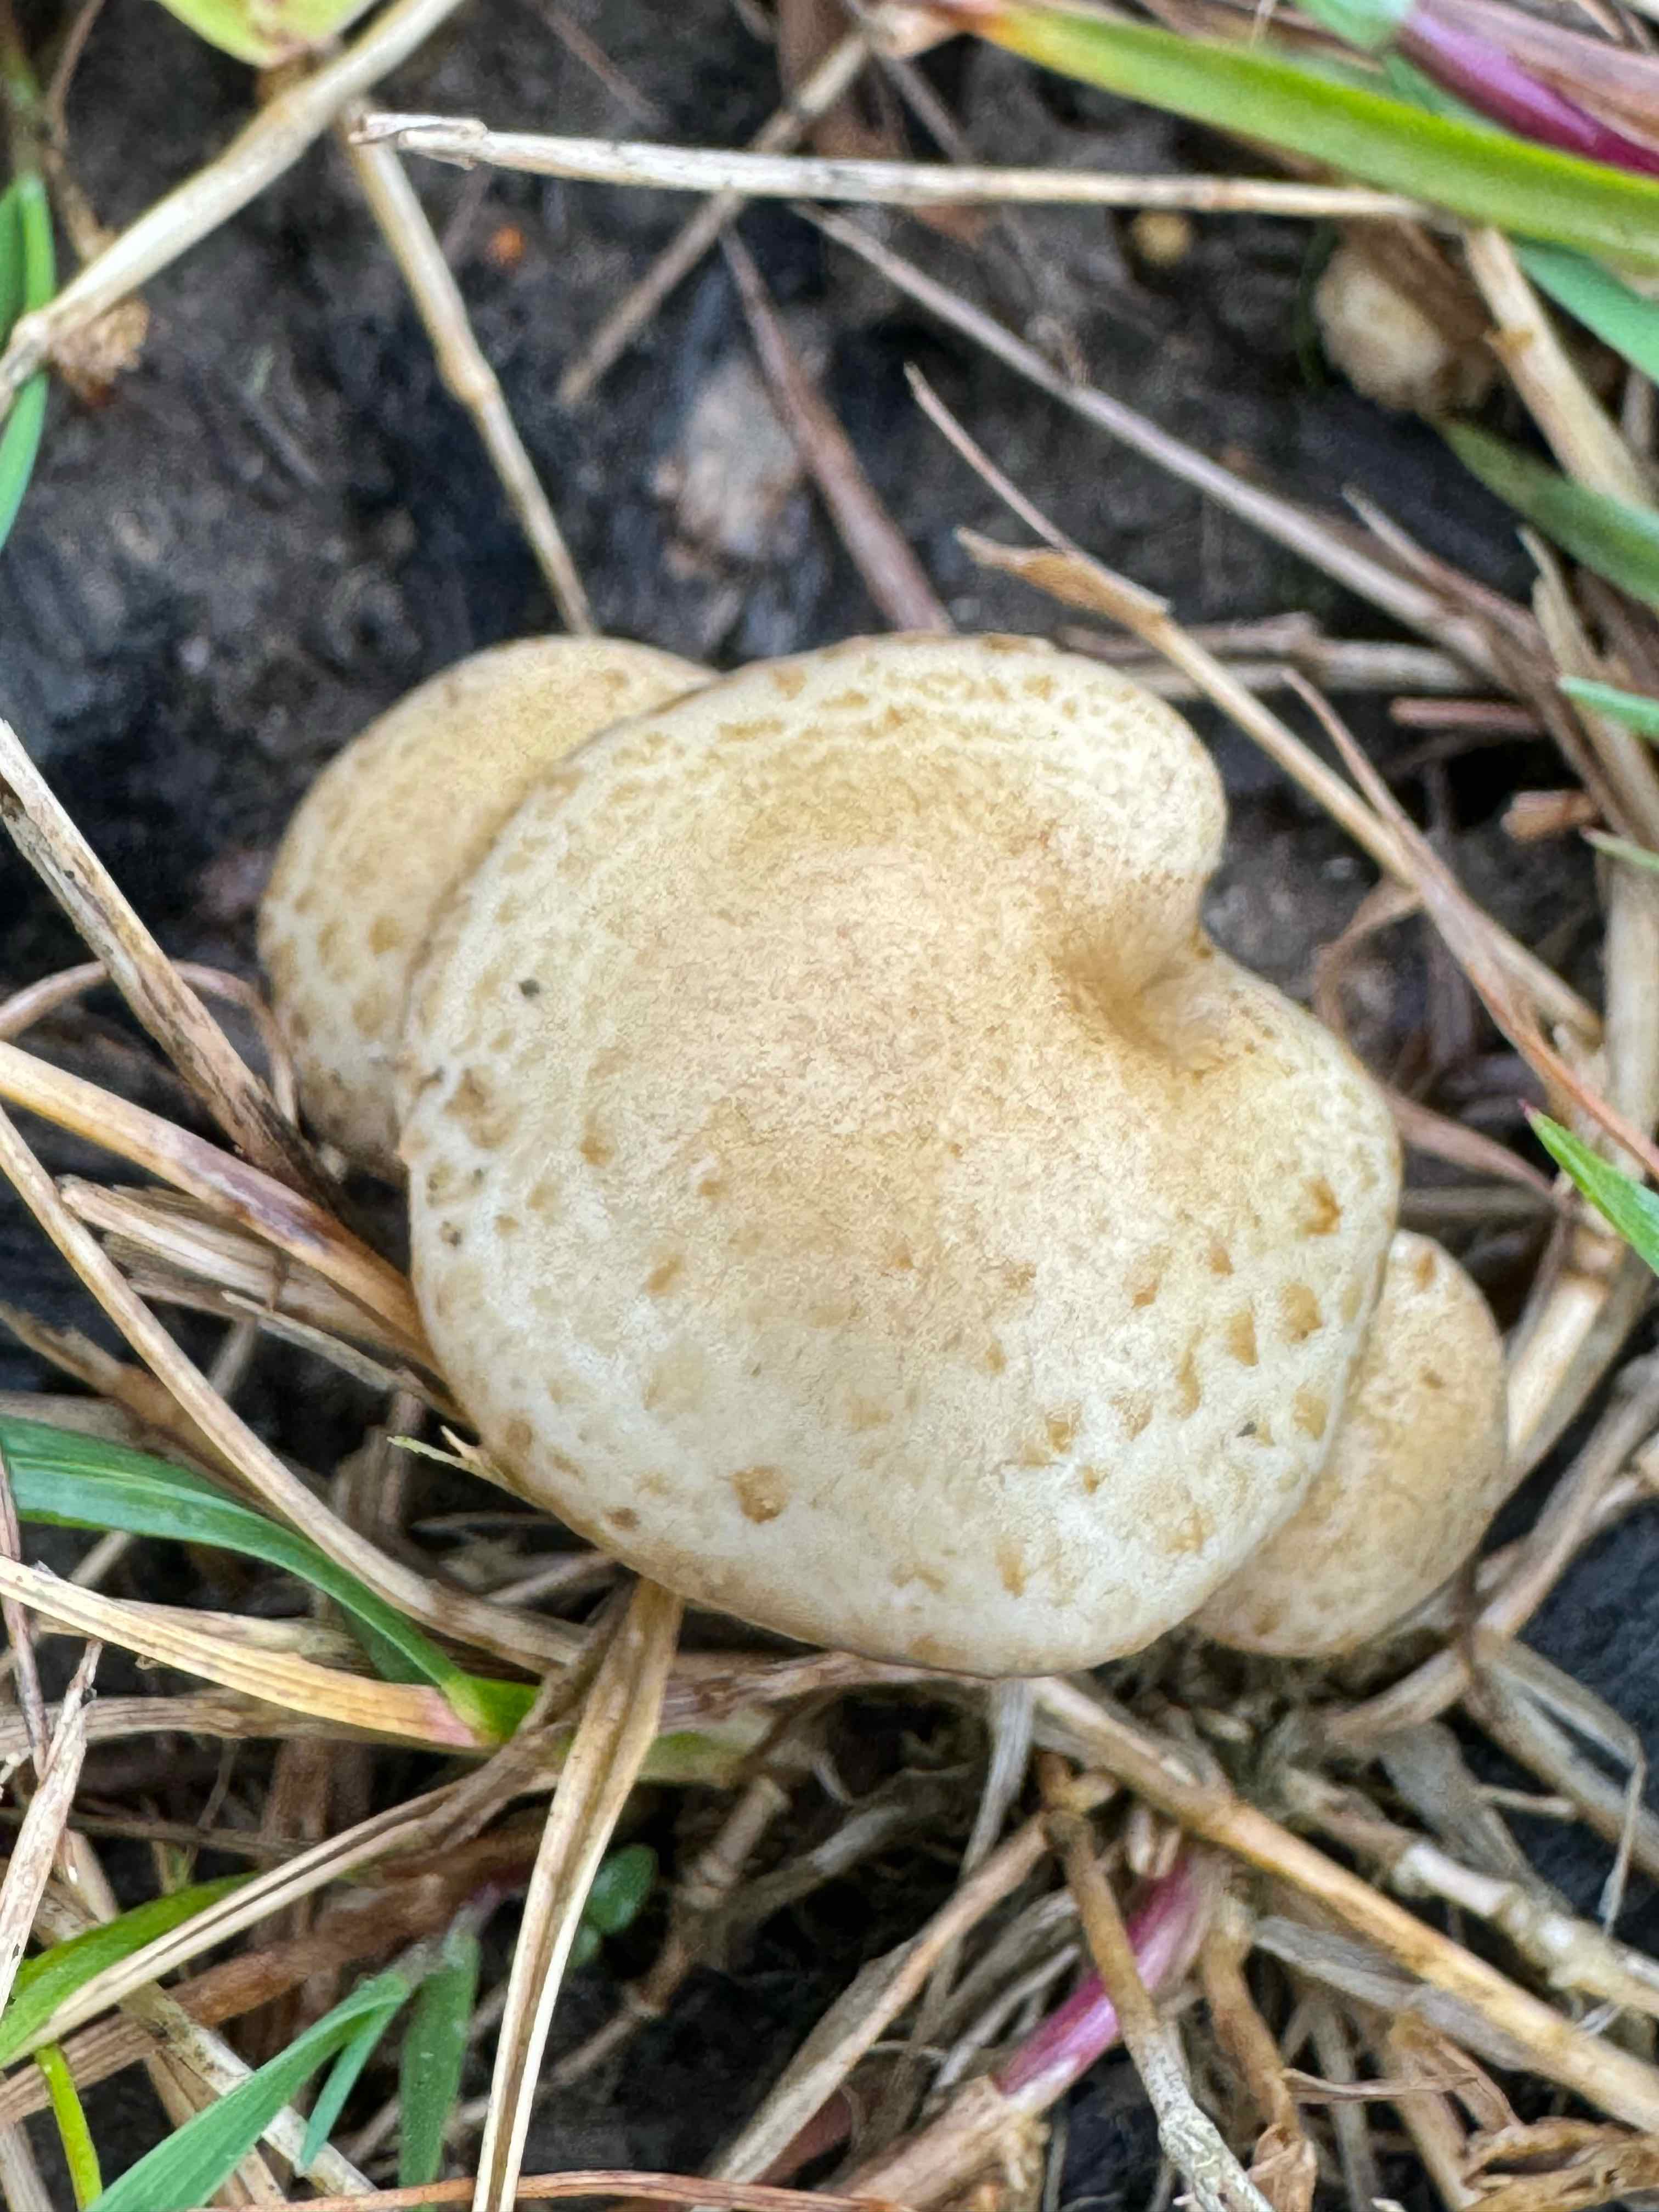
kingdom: Fungi
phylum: Basidiomycota
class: Agaricomycetes
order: Agaricales
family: Strophariaceae
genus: Pholiota
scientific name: Pholiota gummosa
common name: grøngul skælhat
